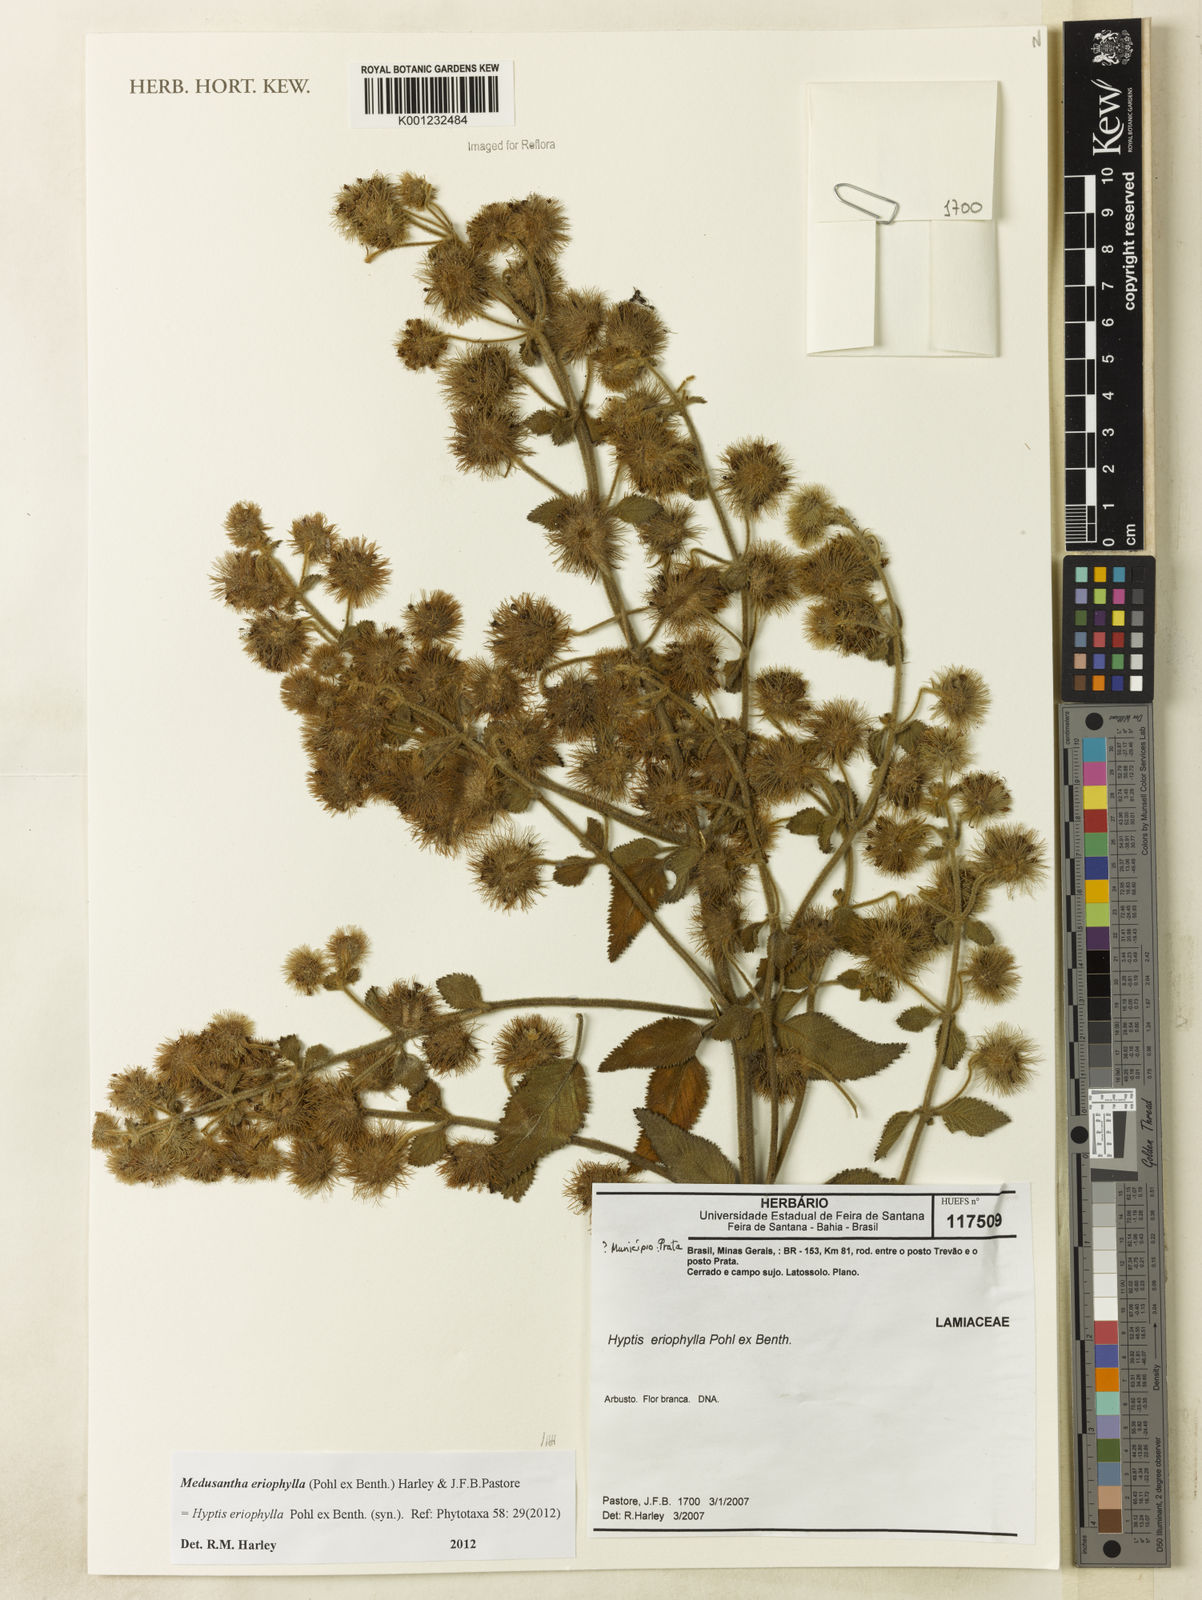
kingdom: Plantae
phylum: Tracheophyta
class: Magnoliopsida
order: Lamiales
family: Lamiaceae
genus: Medusantha
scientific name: Medusantha eriophylla
